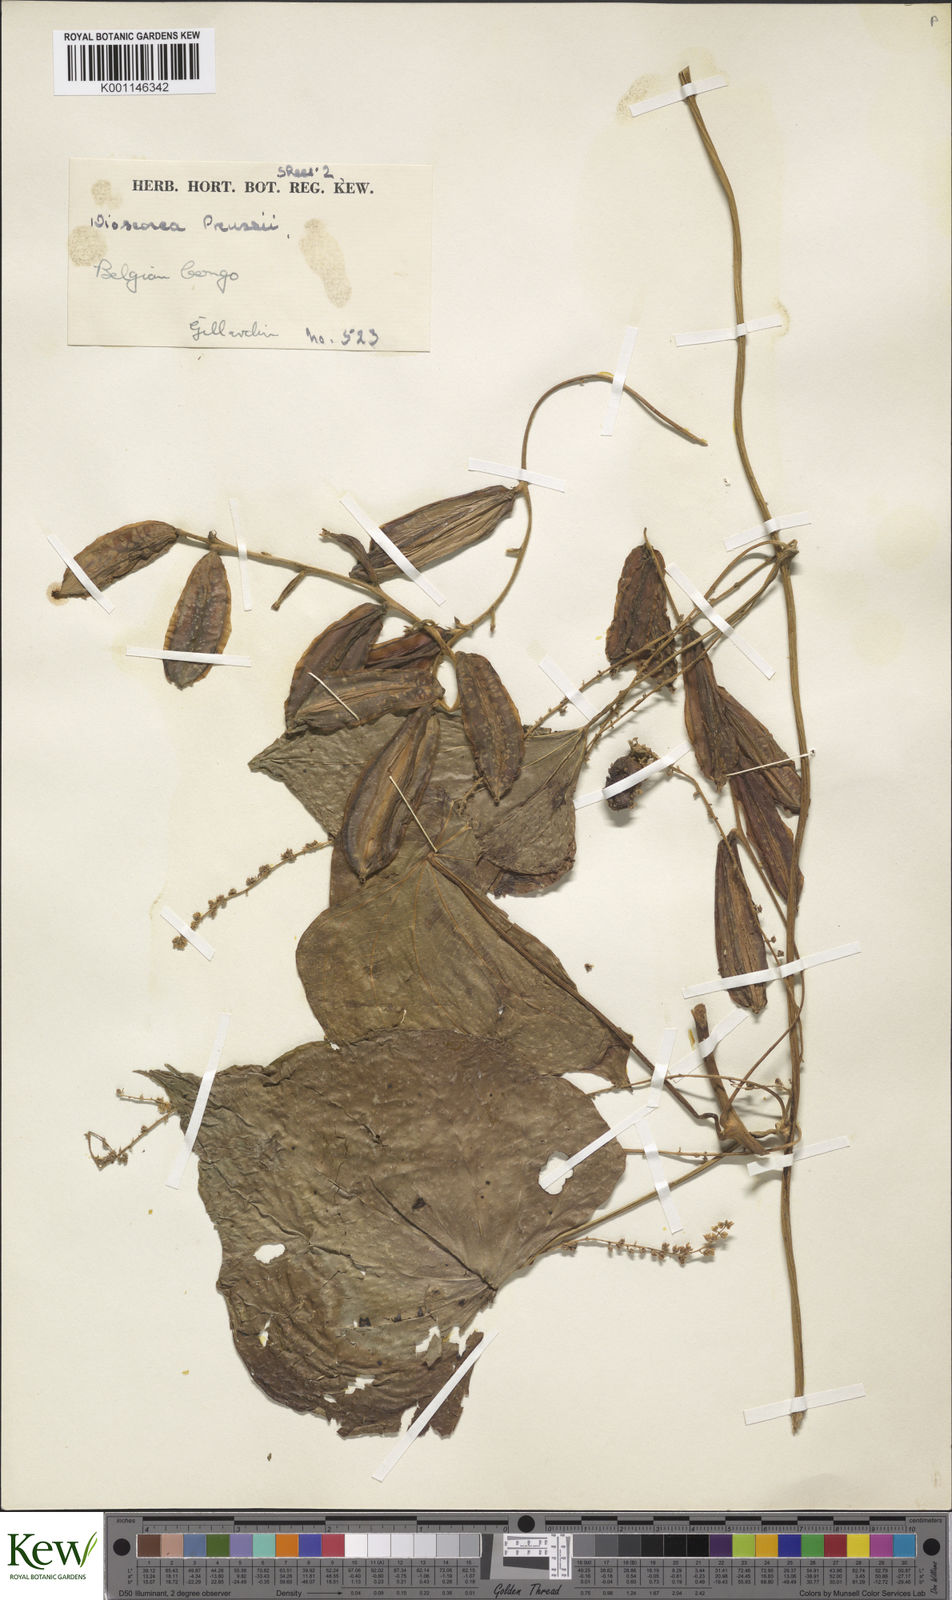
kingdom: Plantae
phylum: Tracheophyta
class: Liliopsida
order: Dioscoreales
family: Dioscoreaceae
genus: Dioscorea
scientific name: Dioscorea preussii
